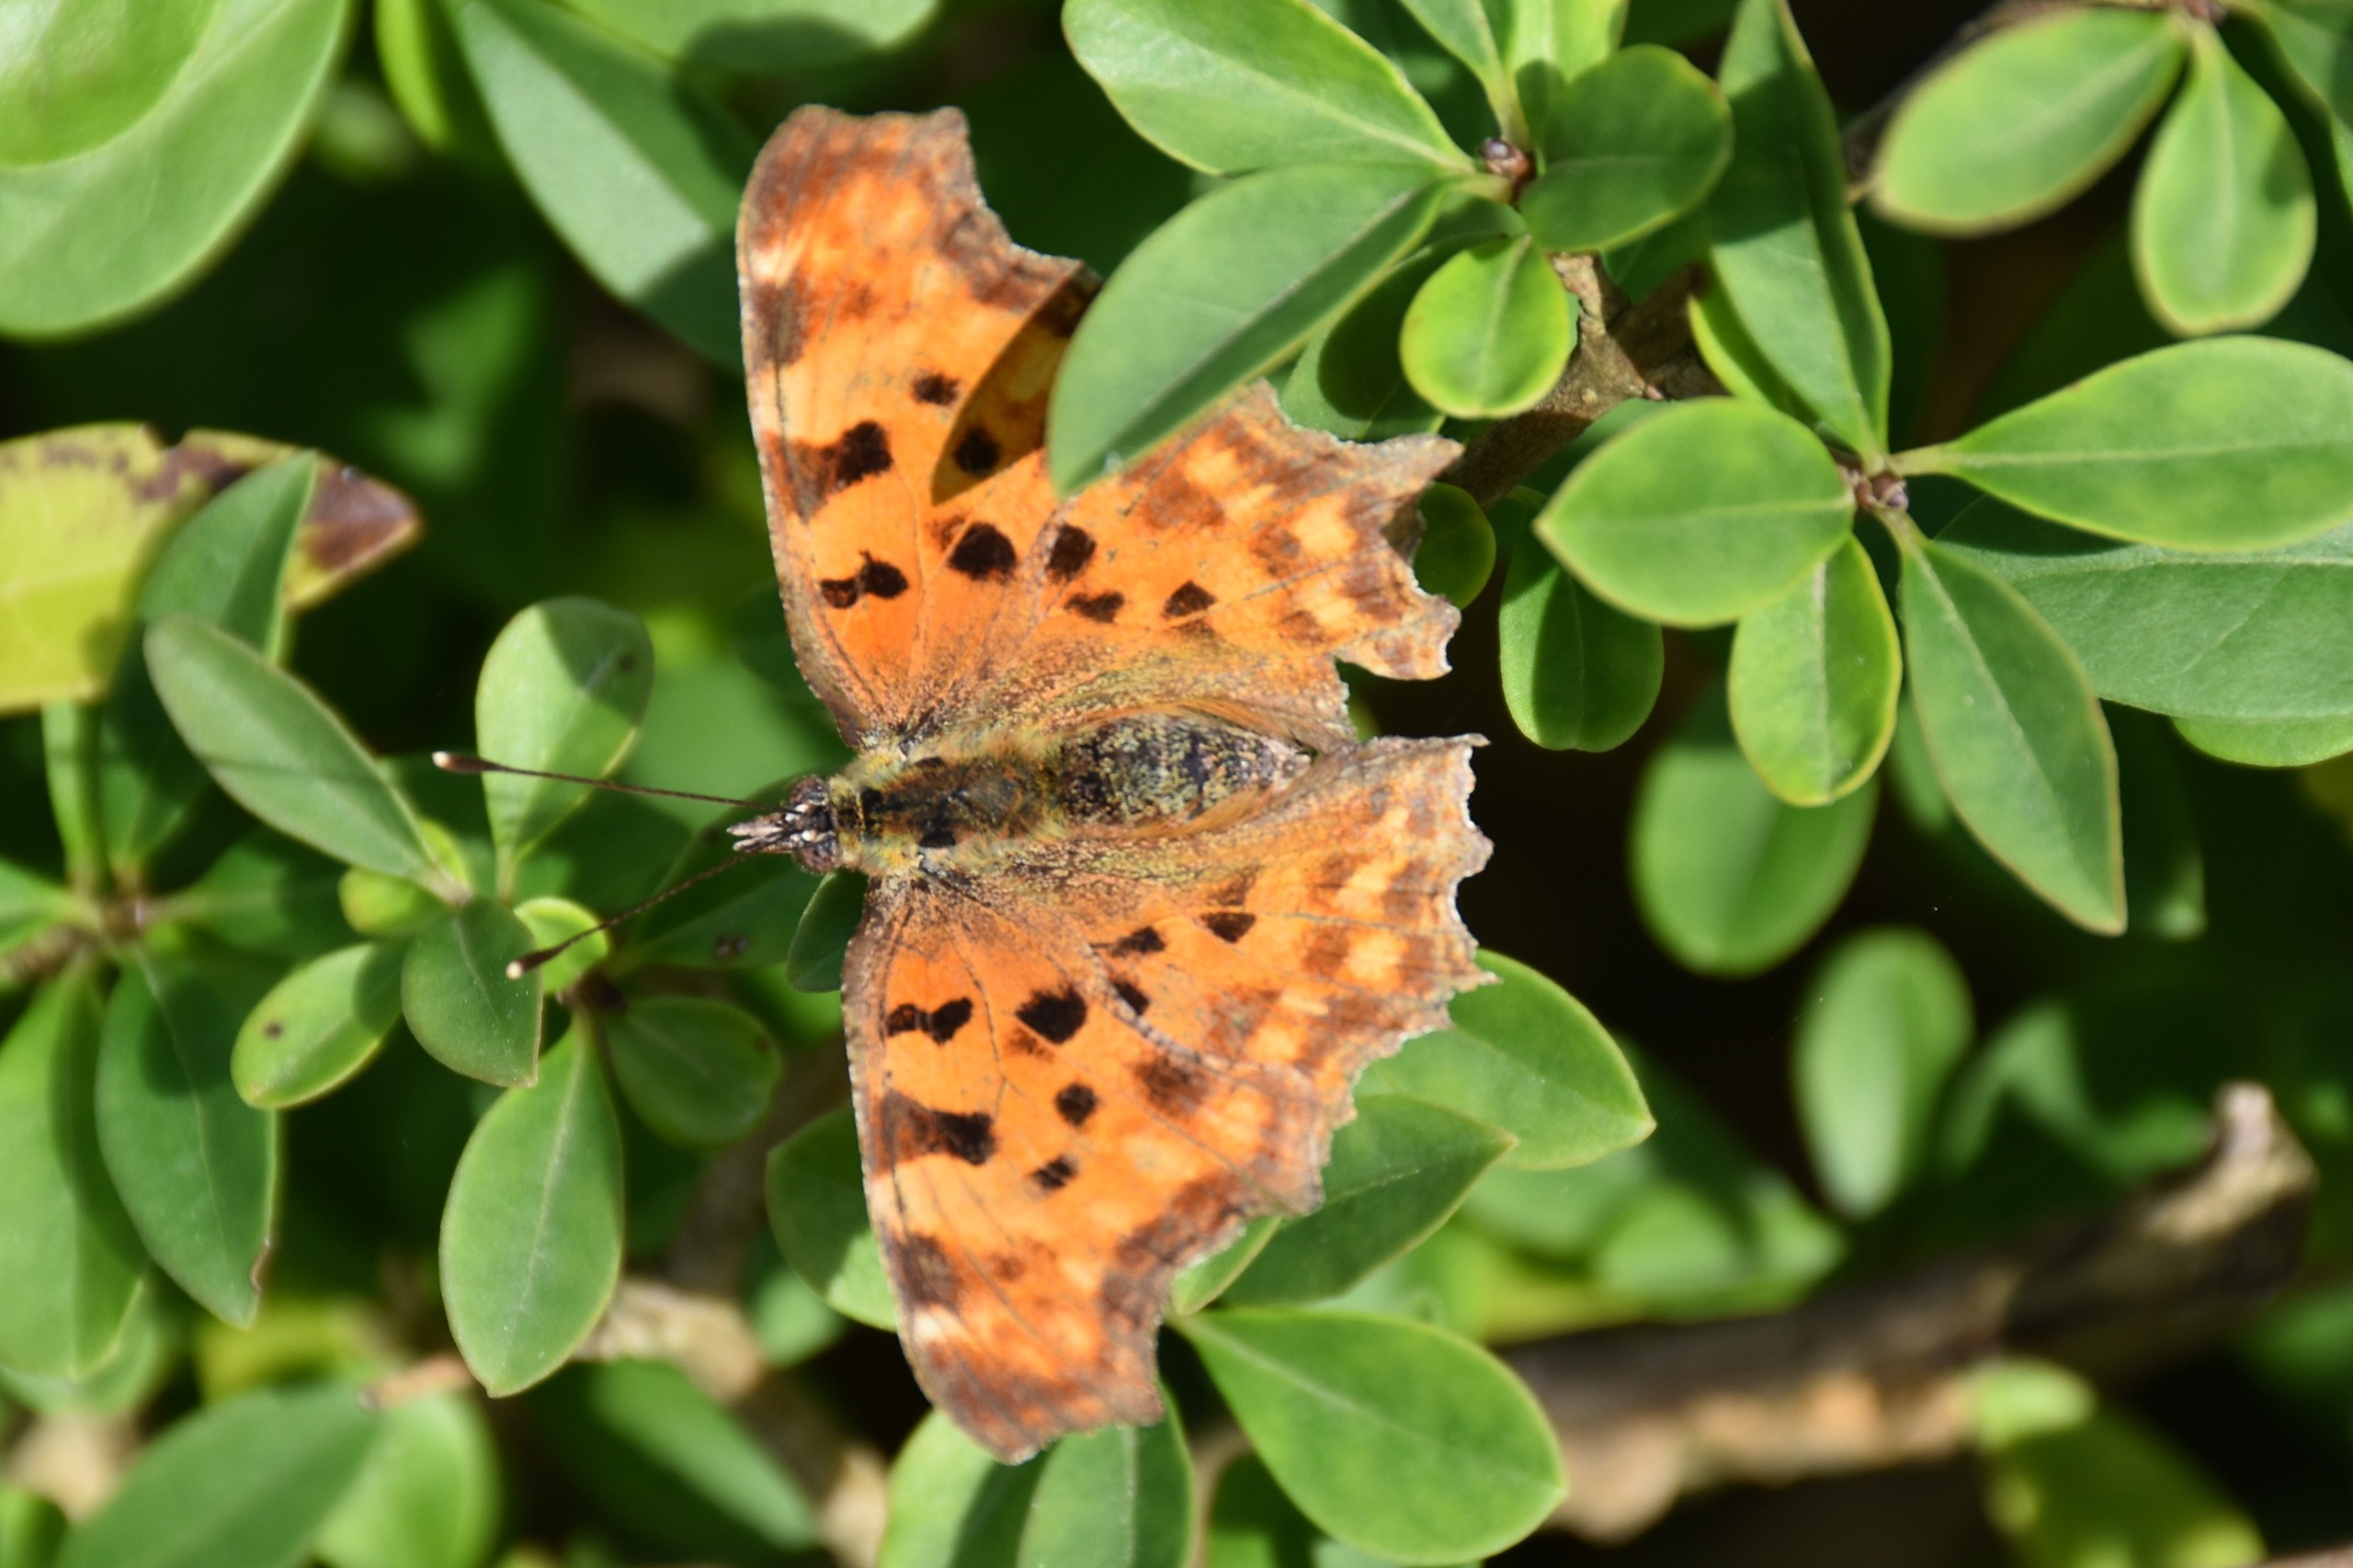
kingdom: Animalia
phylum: Arthropoda
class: Insecta
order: Lepidoptera
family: Nymphalidae
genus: Polygonia
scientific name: Polygonia c-album
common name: Det hvide C
